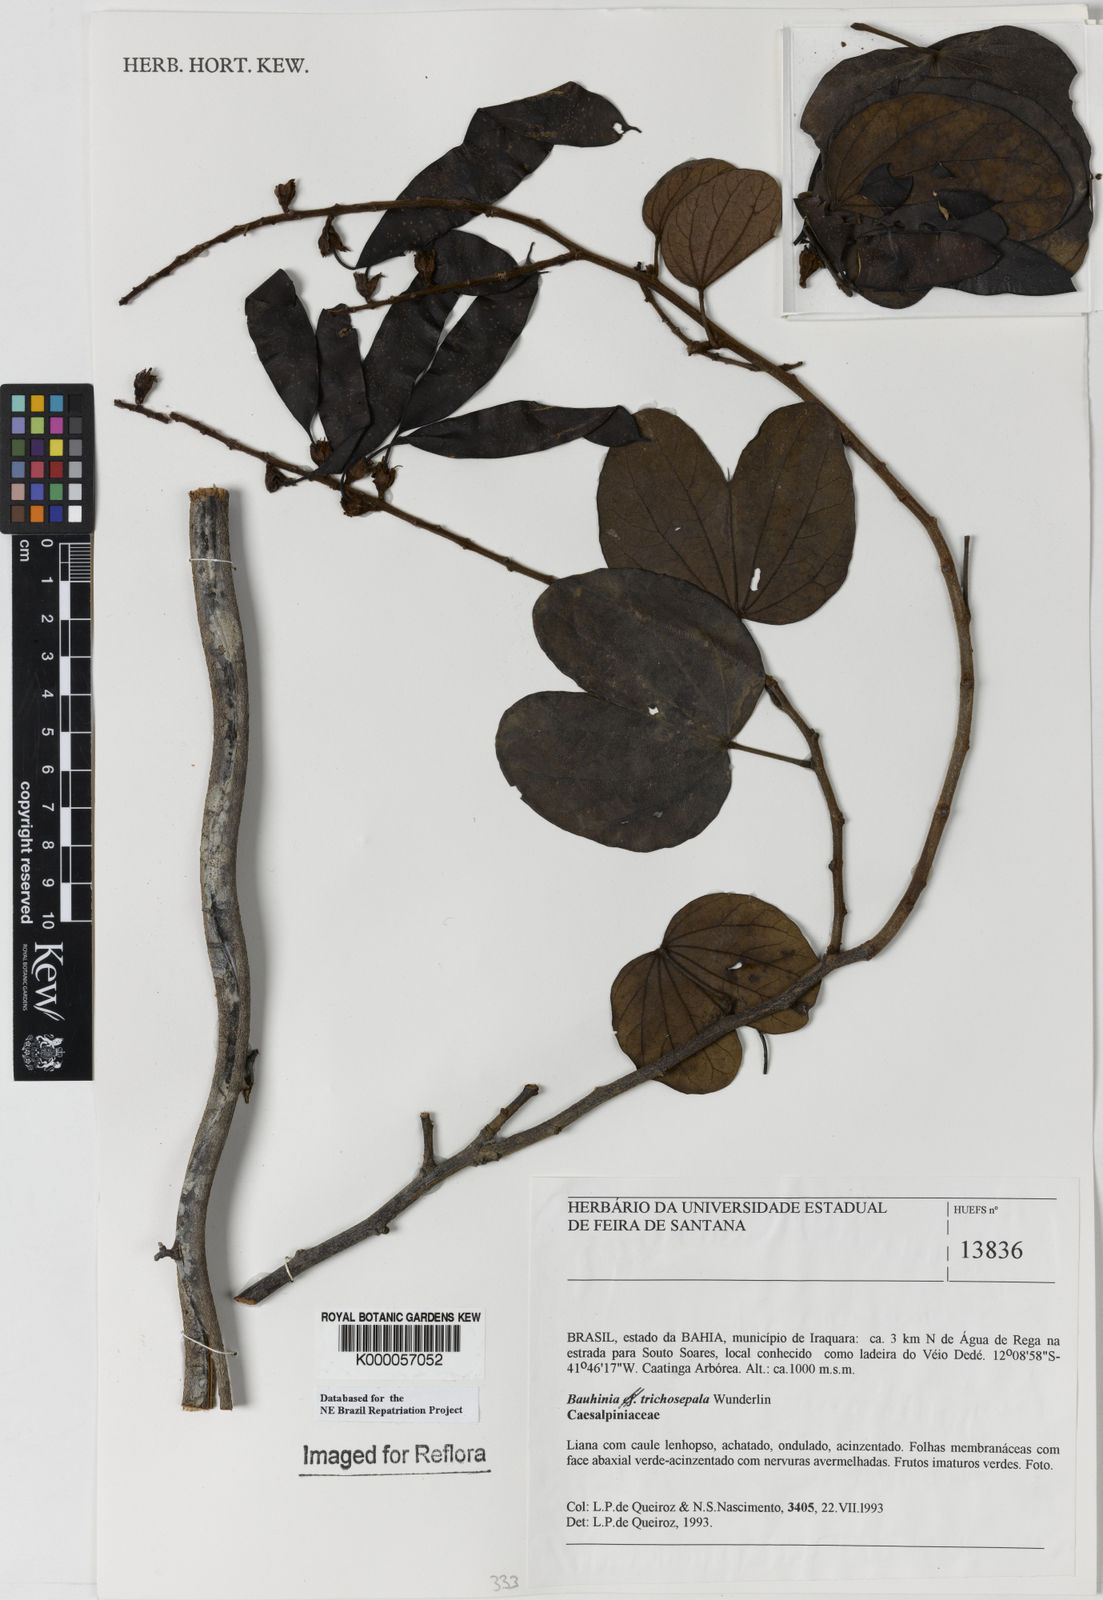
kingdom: Plantae
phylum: Tracheophyta
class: Magnoliopsida
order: Fabales
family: Fabaceae
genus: Schnella
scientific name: Schnella trichosepala
